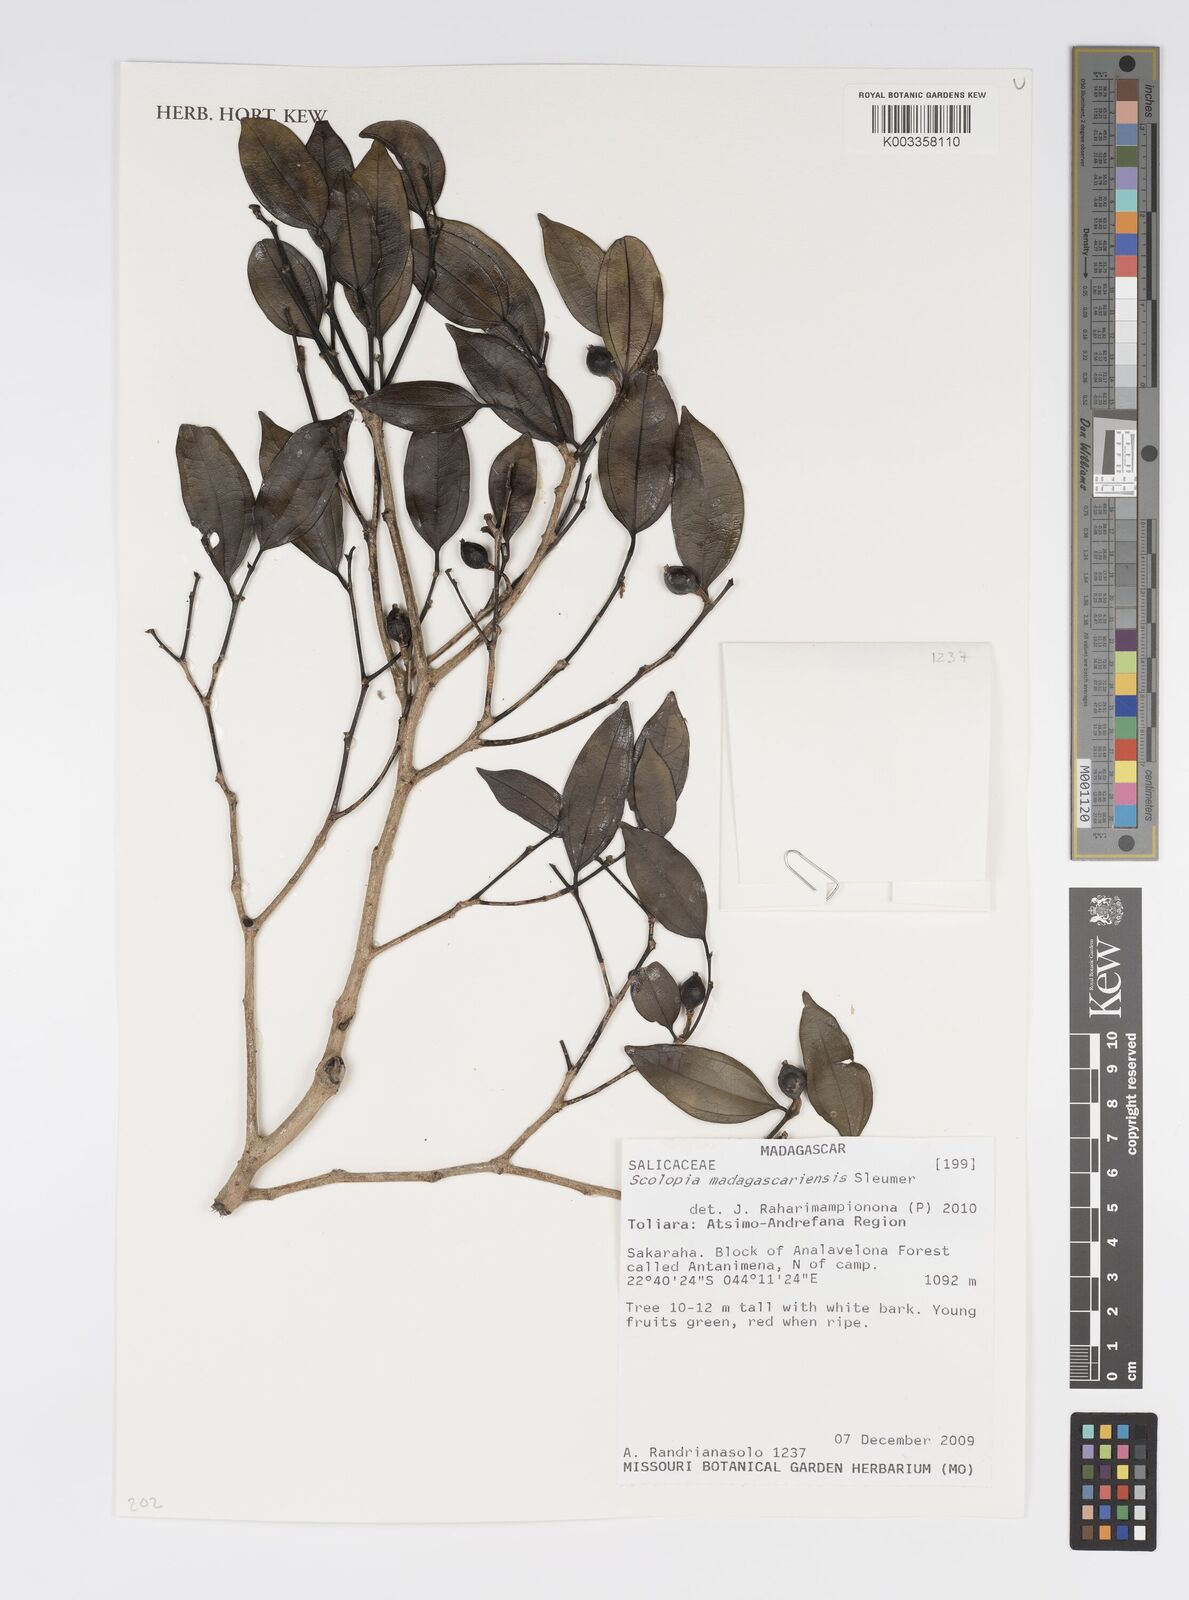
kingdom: Plantae
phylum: Tracheophyta
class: Magnoliopsida
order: Malpighiales
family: Salicaceae
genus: Scolopia
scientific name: Scolopia madagascariensis
